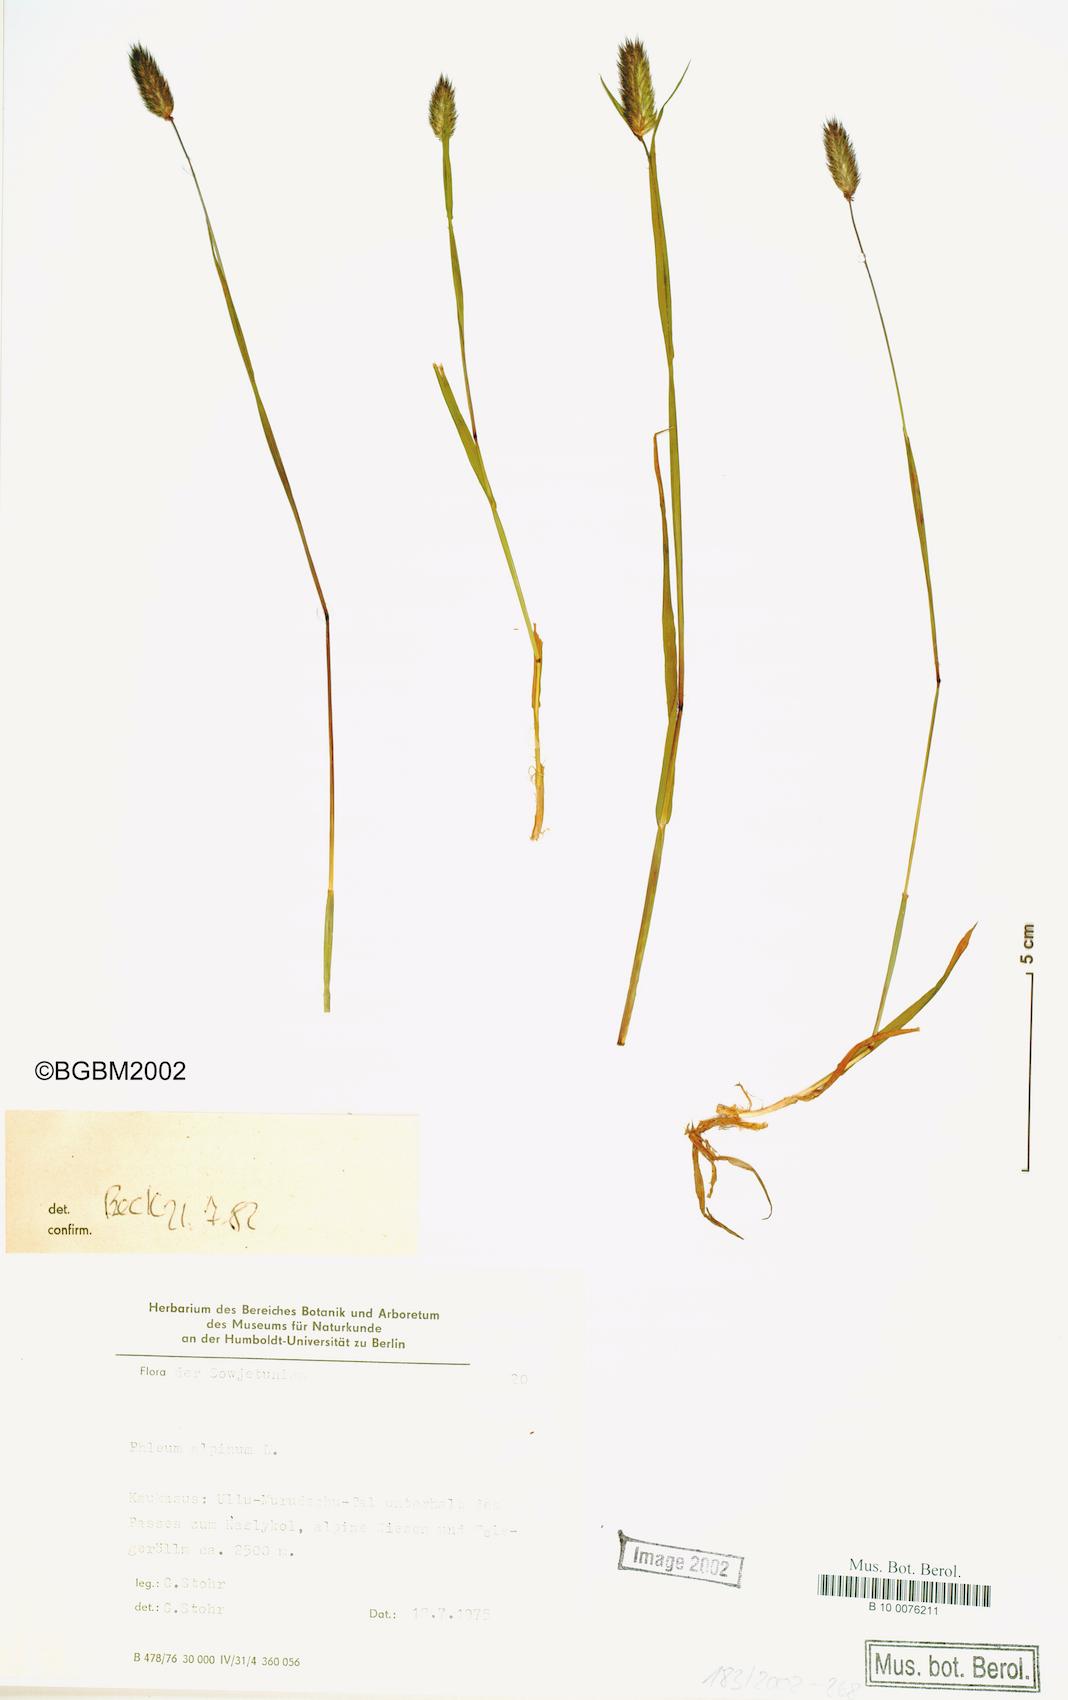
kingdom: Plantae
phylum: Tracheophyta
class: Liliopsida
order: Poales
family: Poaceae
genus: Phleum
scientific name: Phleum alpinum
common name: Alpine cat's-tail
